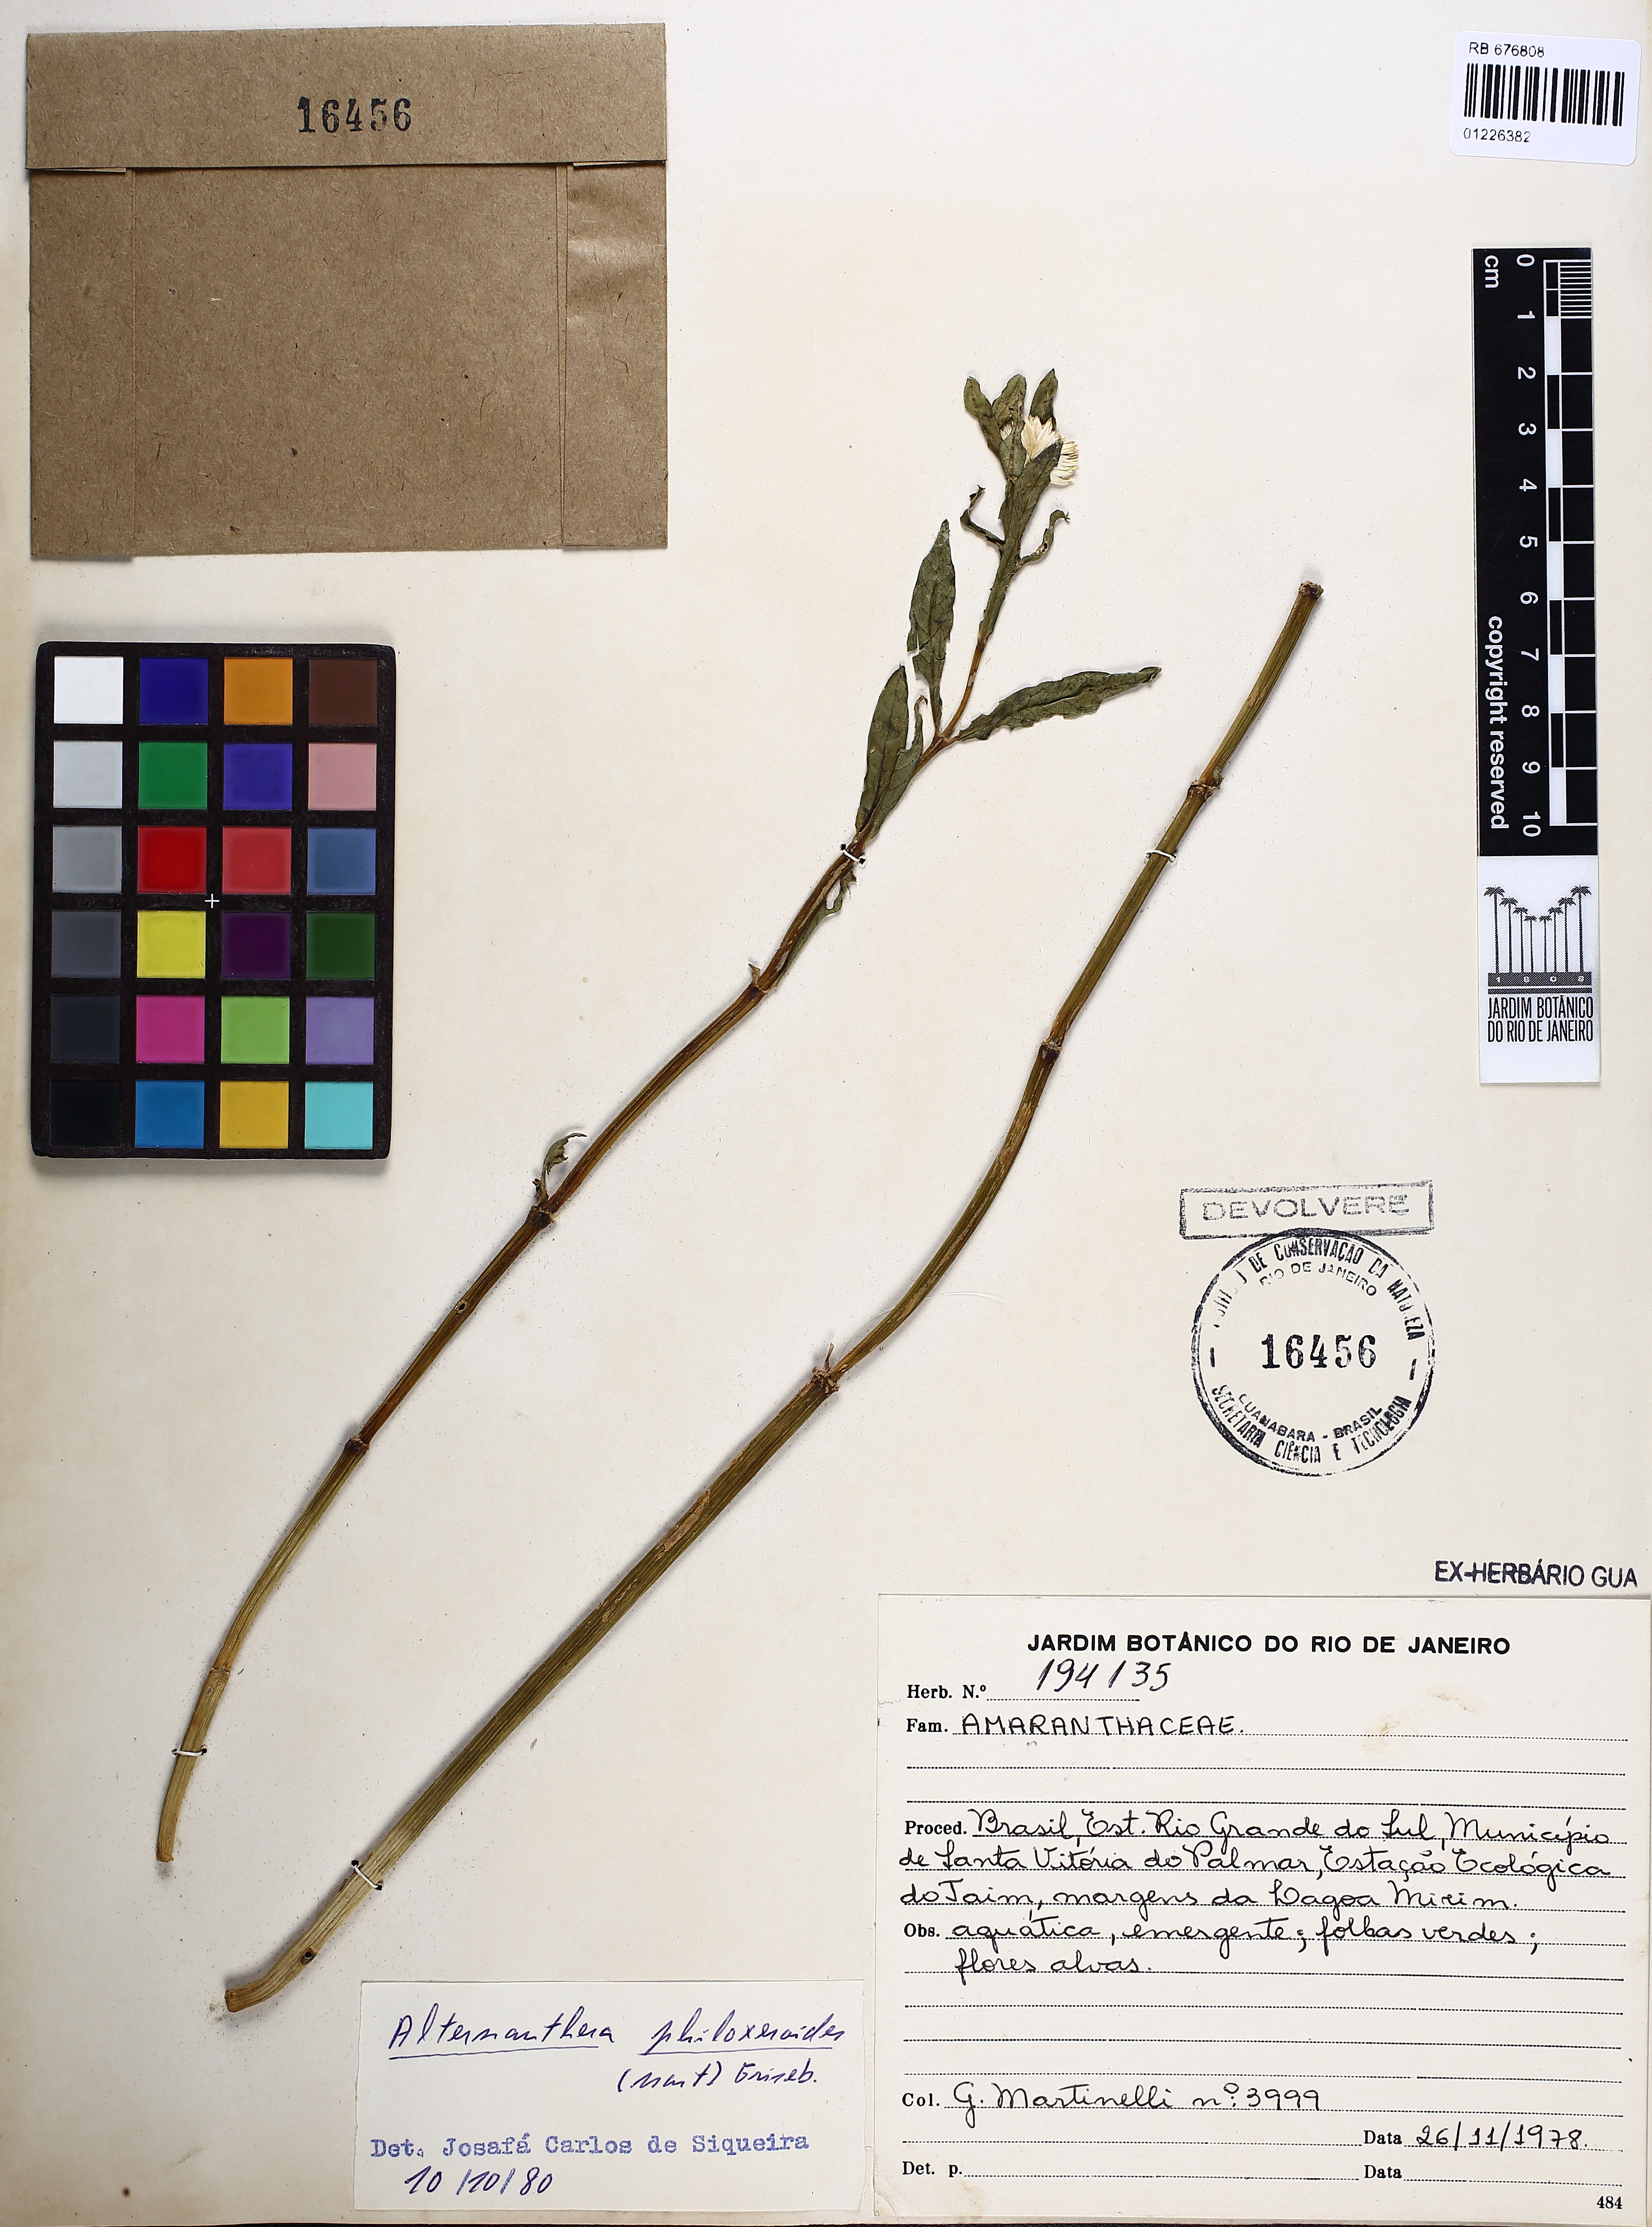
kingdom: Plantae
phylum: Tracheophyta
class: Magnoliopsida
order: Caryophyllales
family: Amaranthaceae
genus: Alternanthera
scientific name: Alternanthera philoxeroides
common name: Alligatorweed
